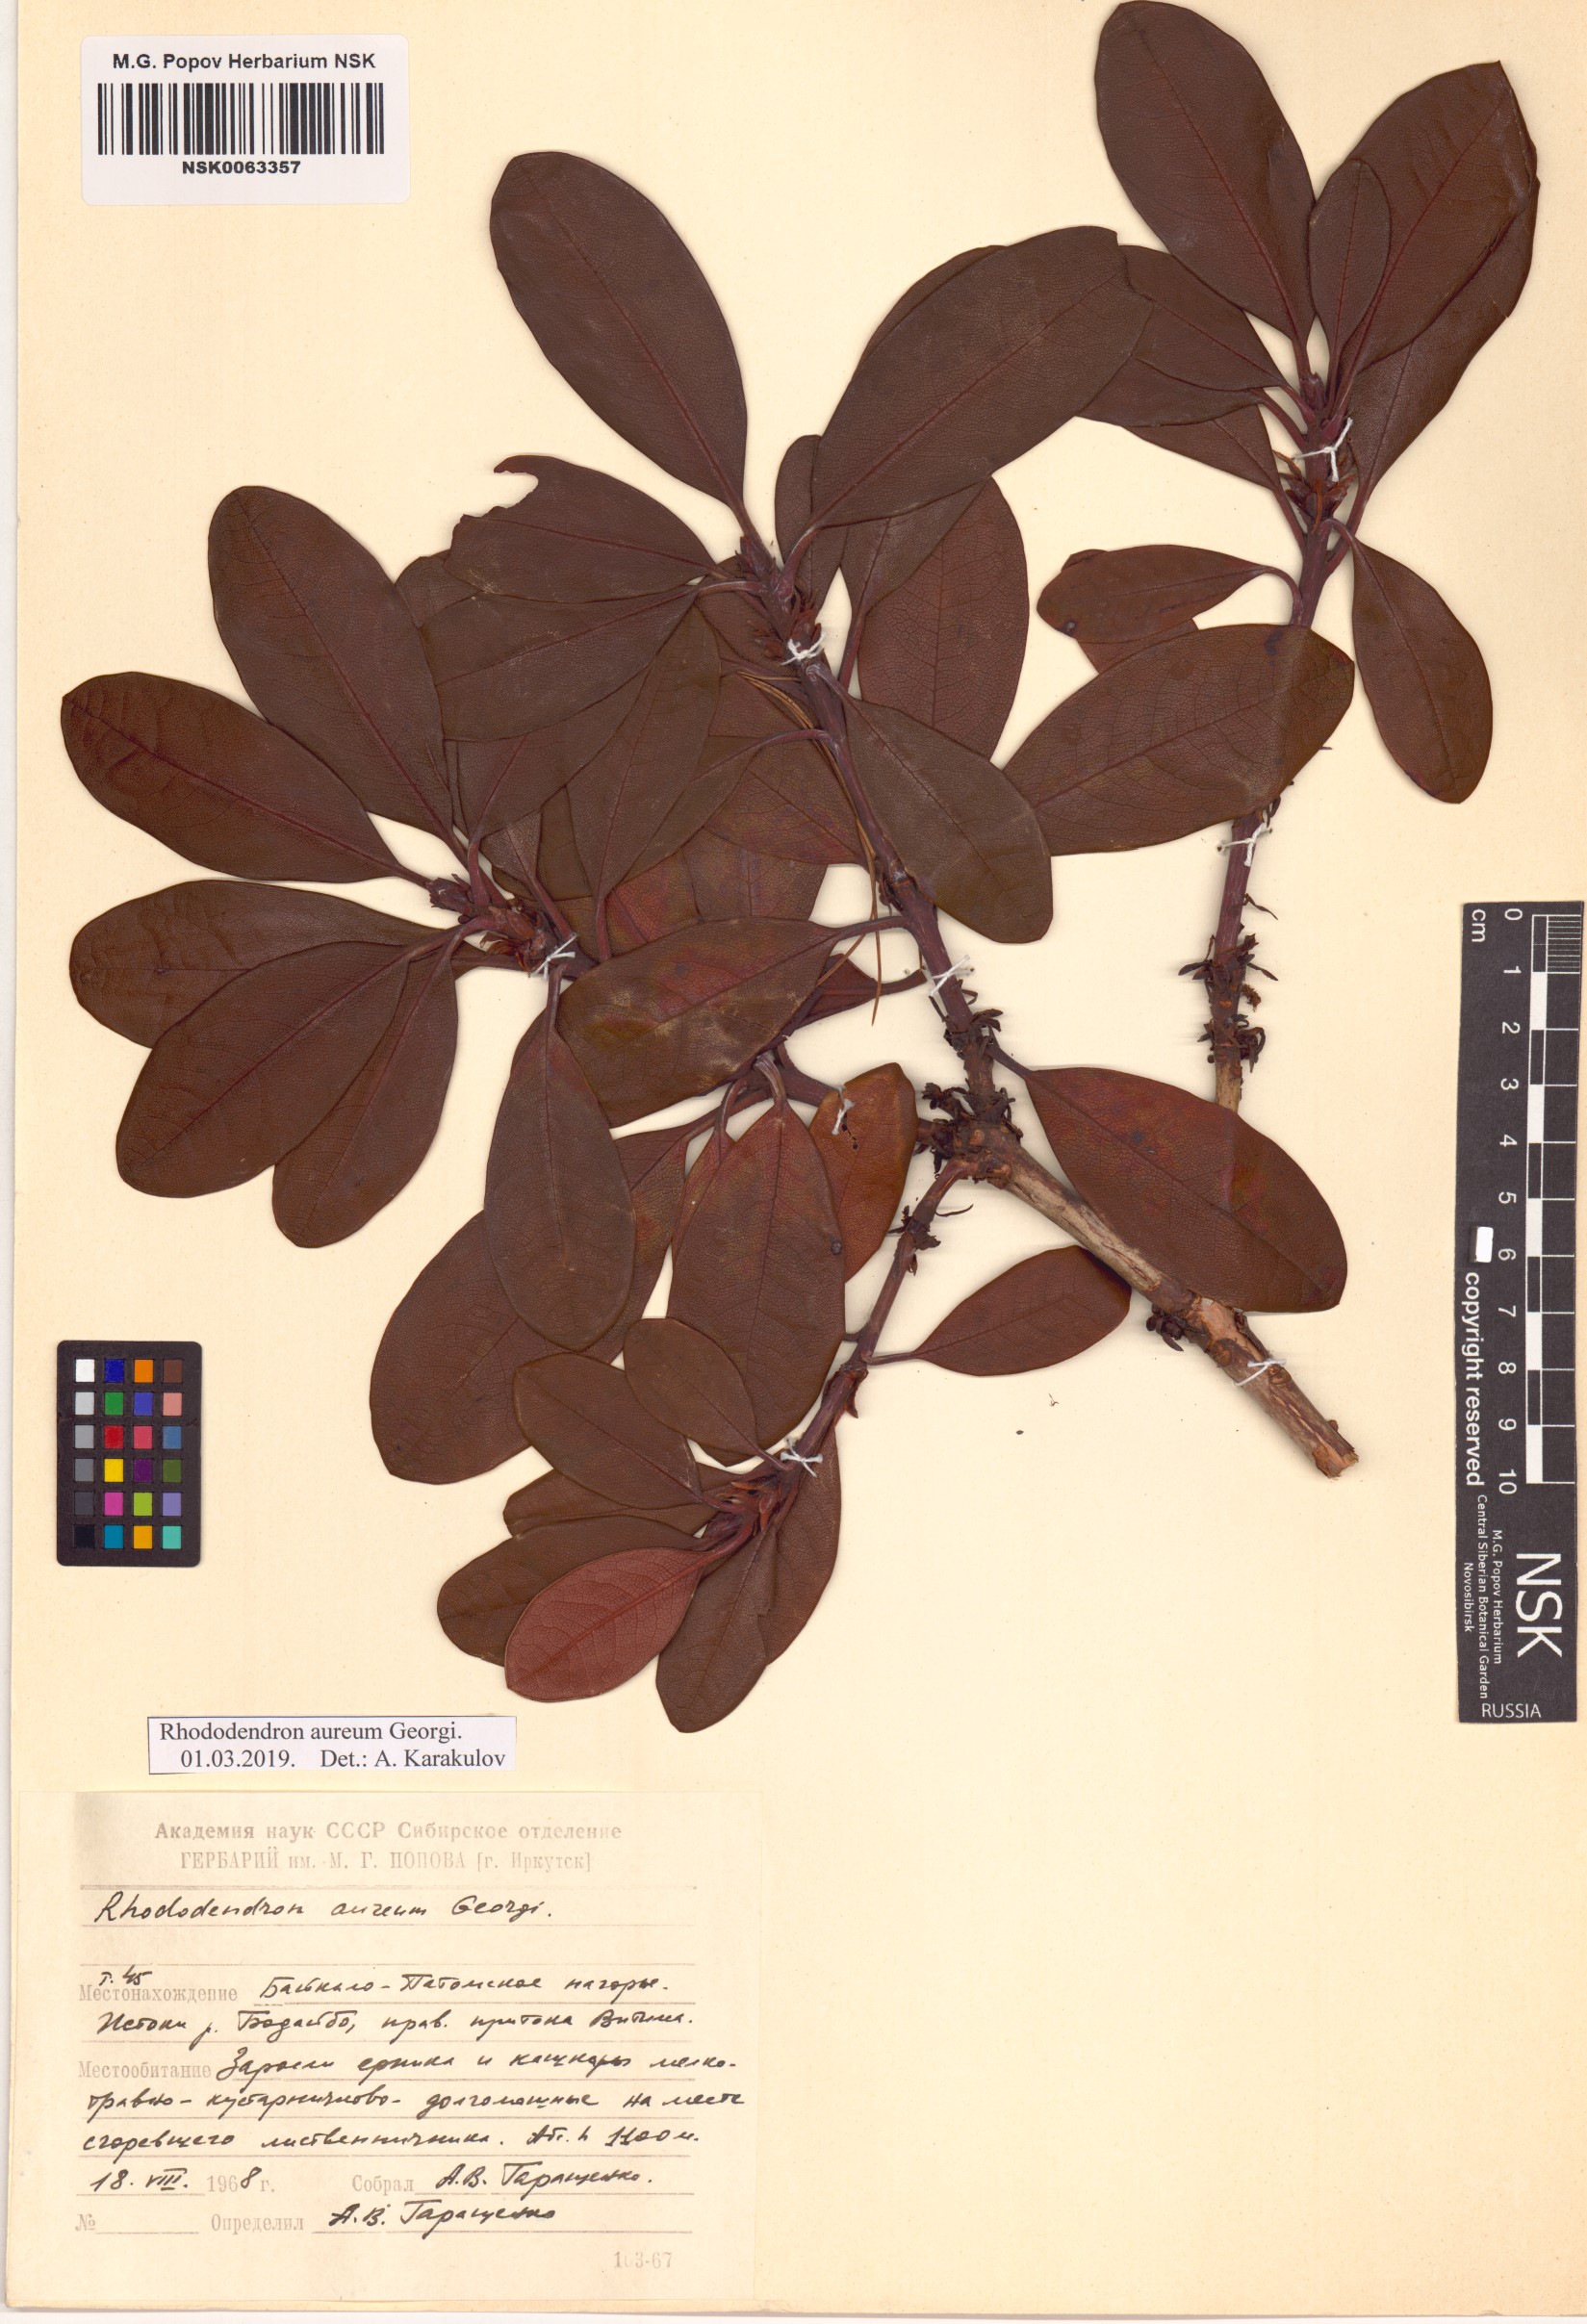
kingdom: Plantae
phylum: Tracheophyta
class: Magnoliopsida
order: Ericales
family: Ericaceae
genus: Rhododendron
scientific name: Rhododendron aureum
